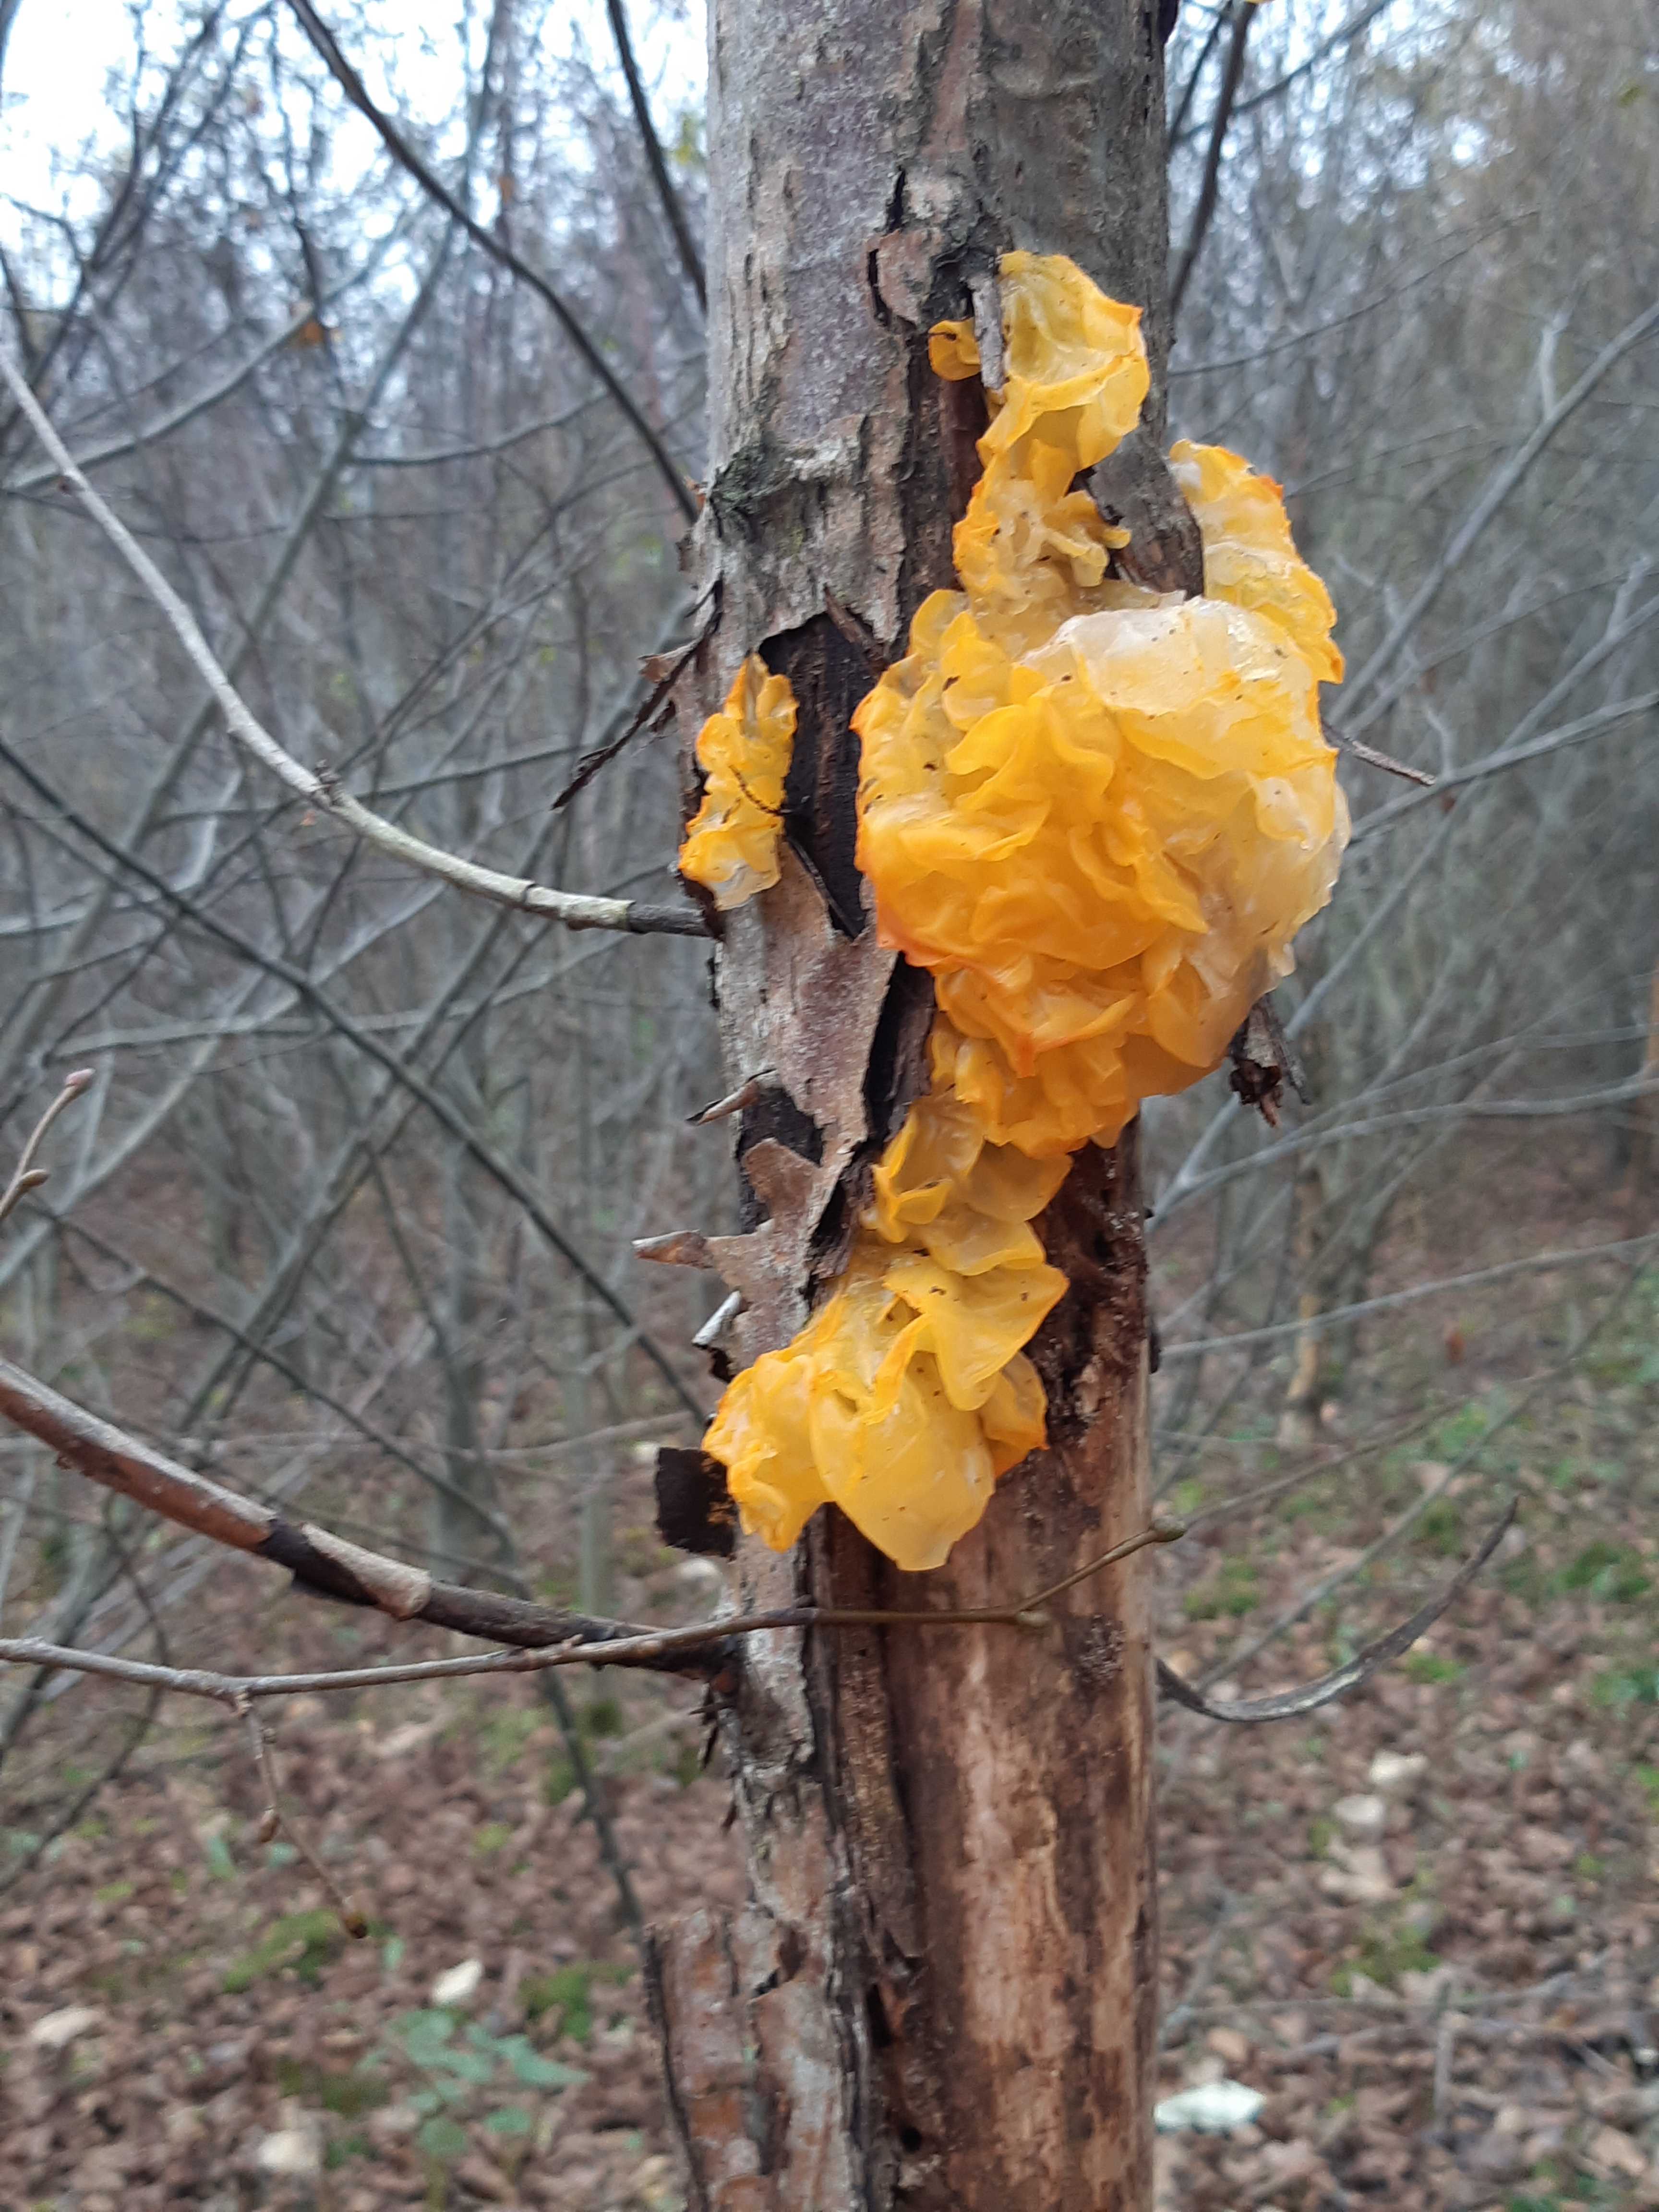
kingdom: Fungi
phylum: Basidiomycota
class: Tremellomycetes
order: Tremellales
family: Tremellaceae
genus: Tremella
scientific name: Tremella mesenterica
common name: gul bævresvamp
